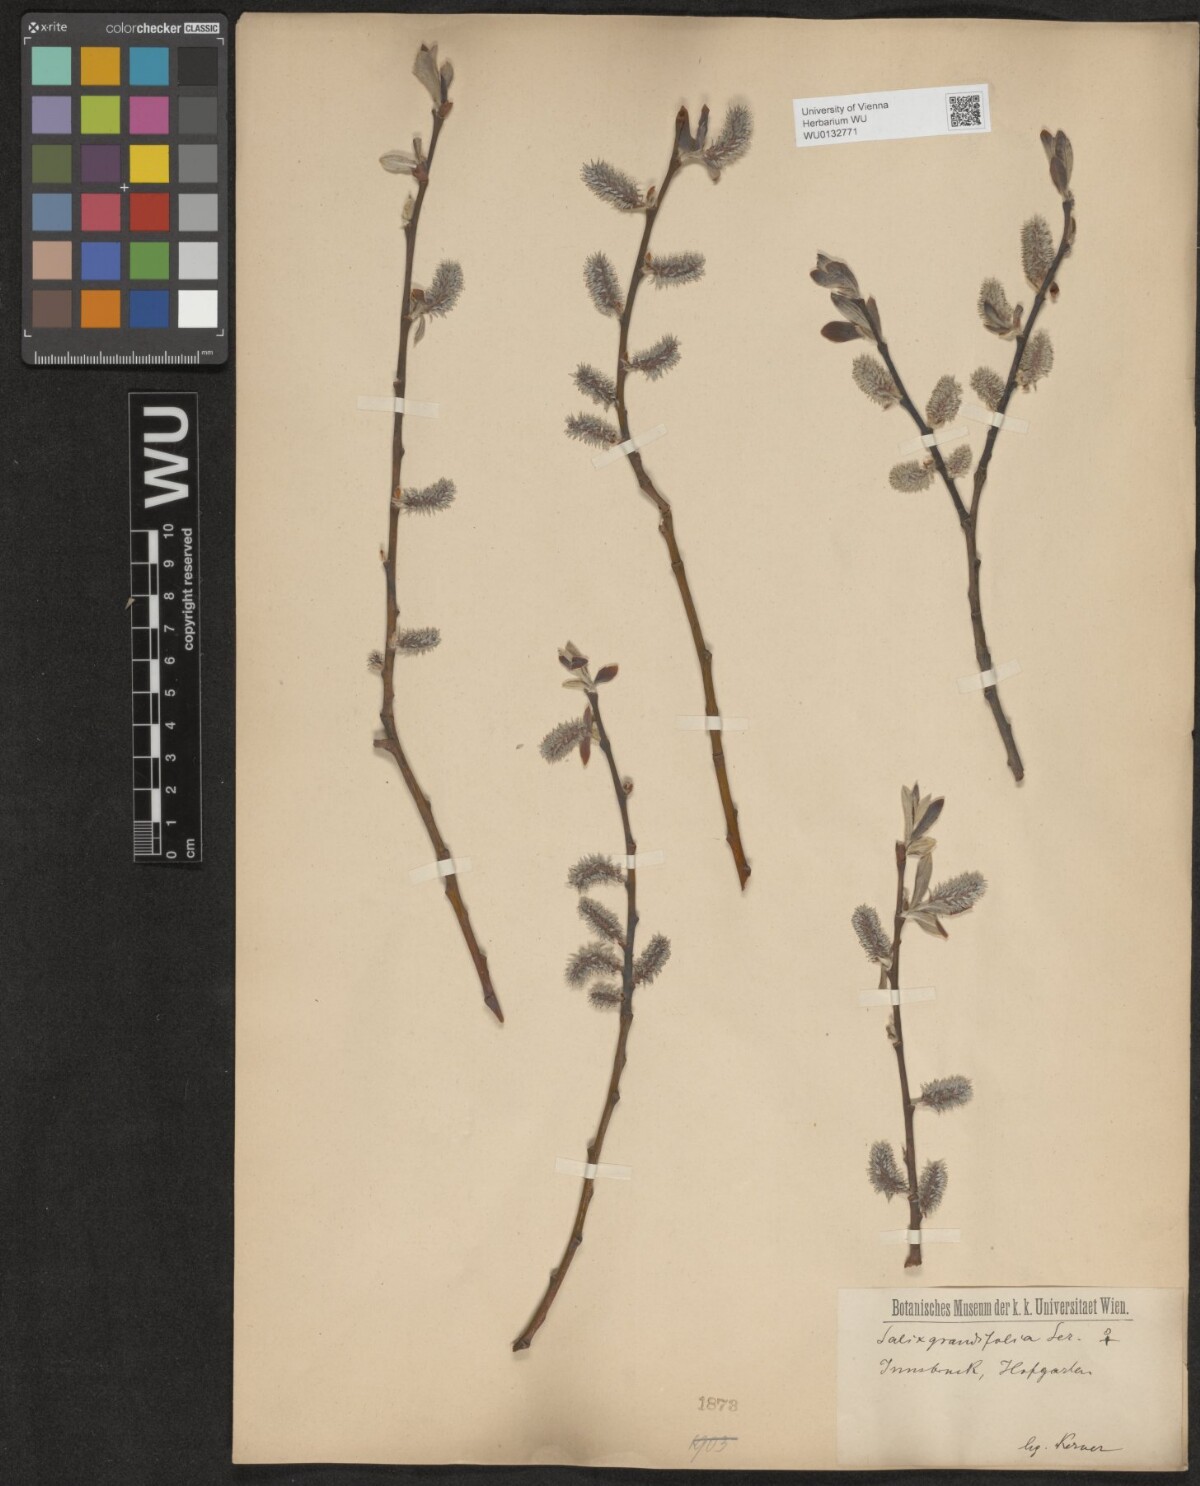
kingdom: Plantae
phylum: Tracheophyta
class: Magnoliopsida
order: Malpighiales
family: Salicaceae
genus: Salix
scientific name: Salix appendiculata
